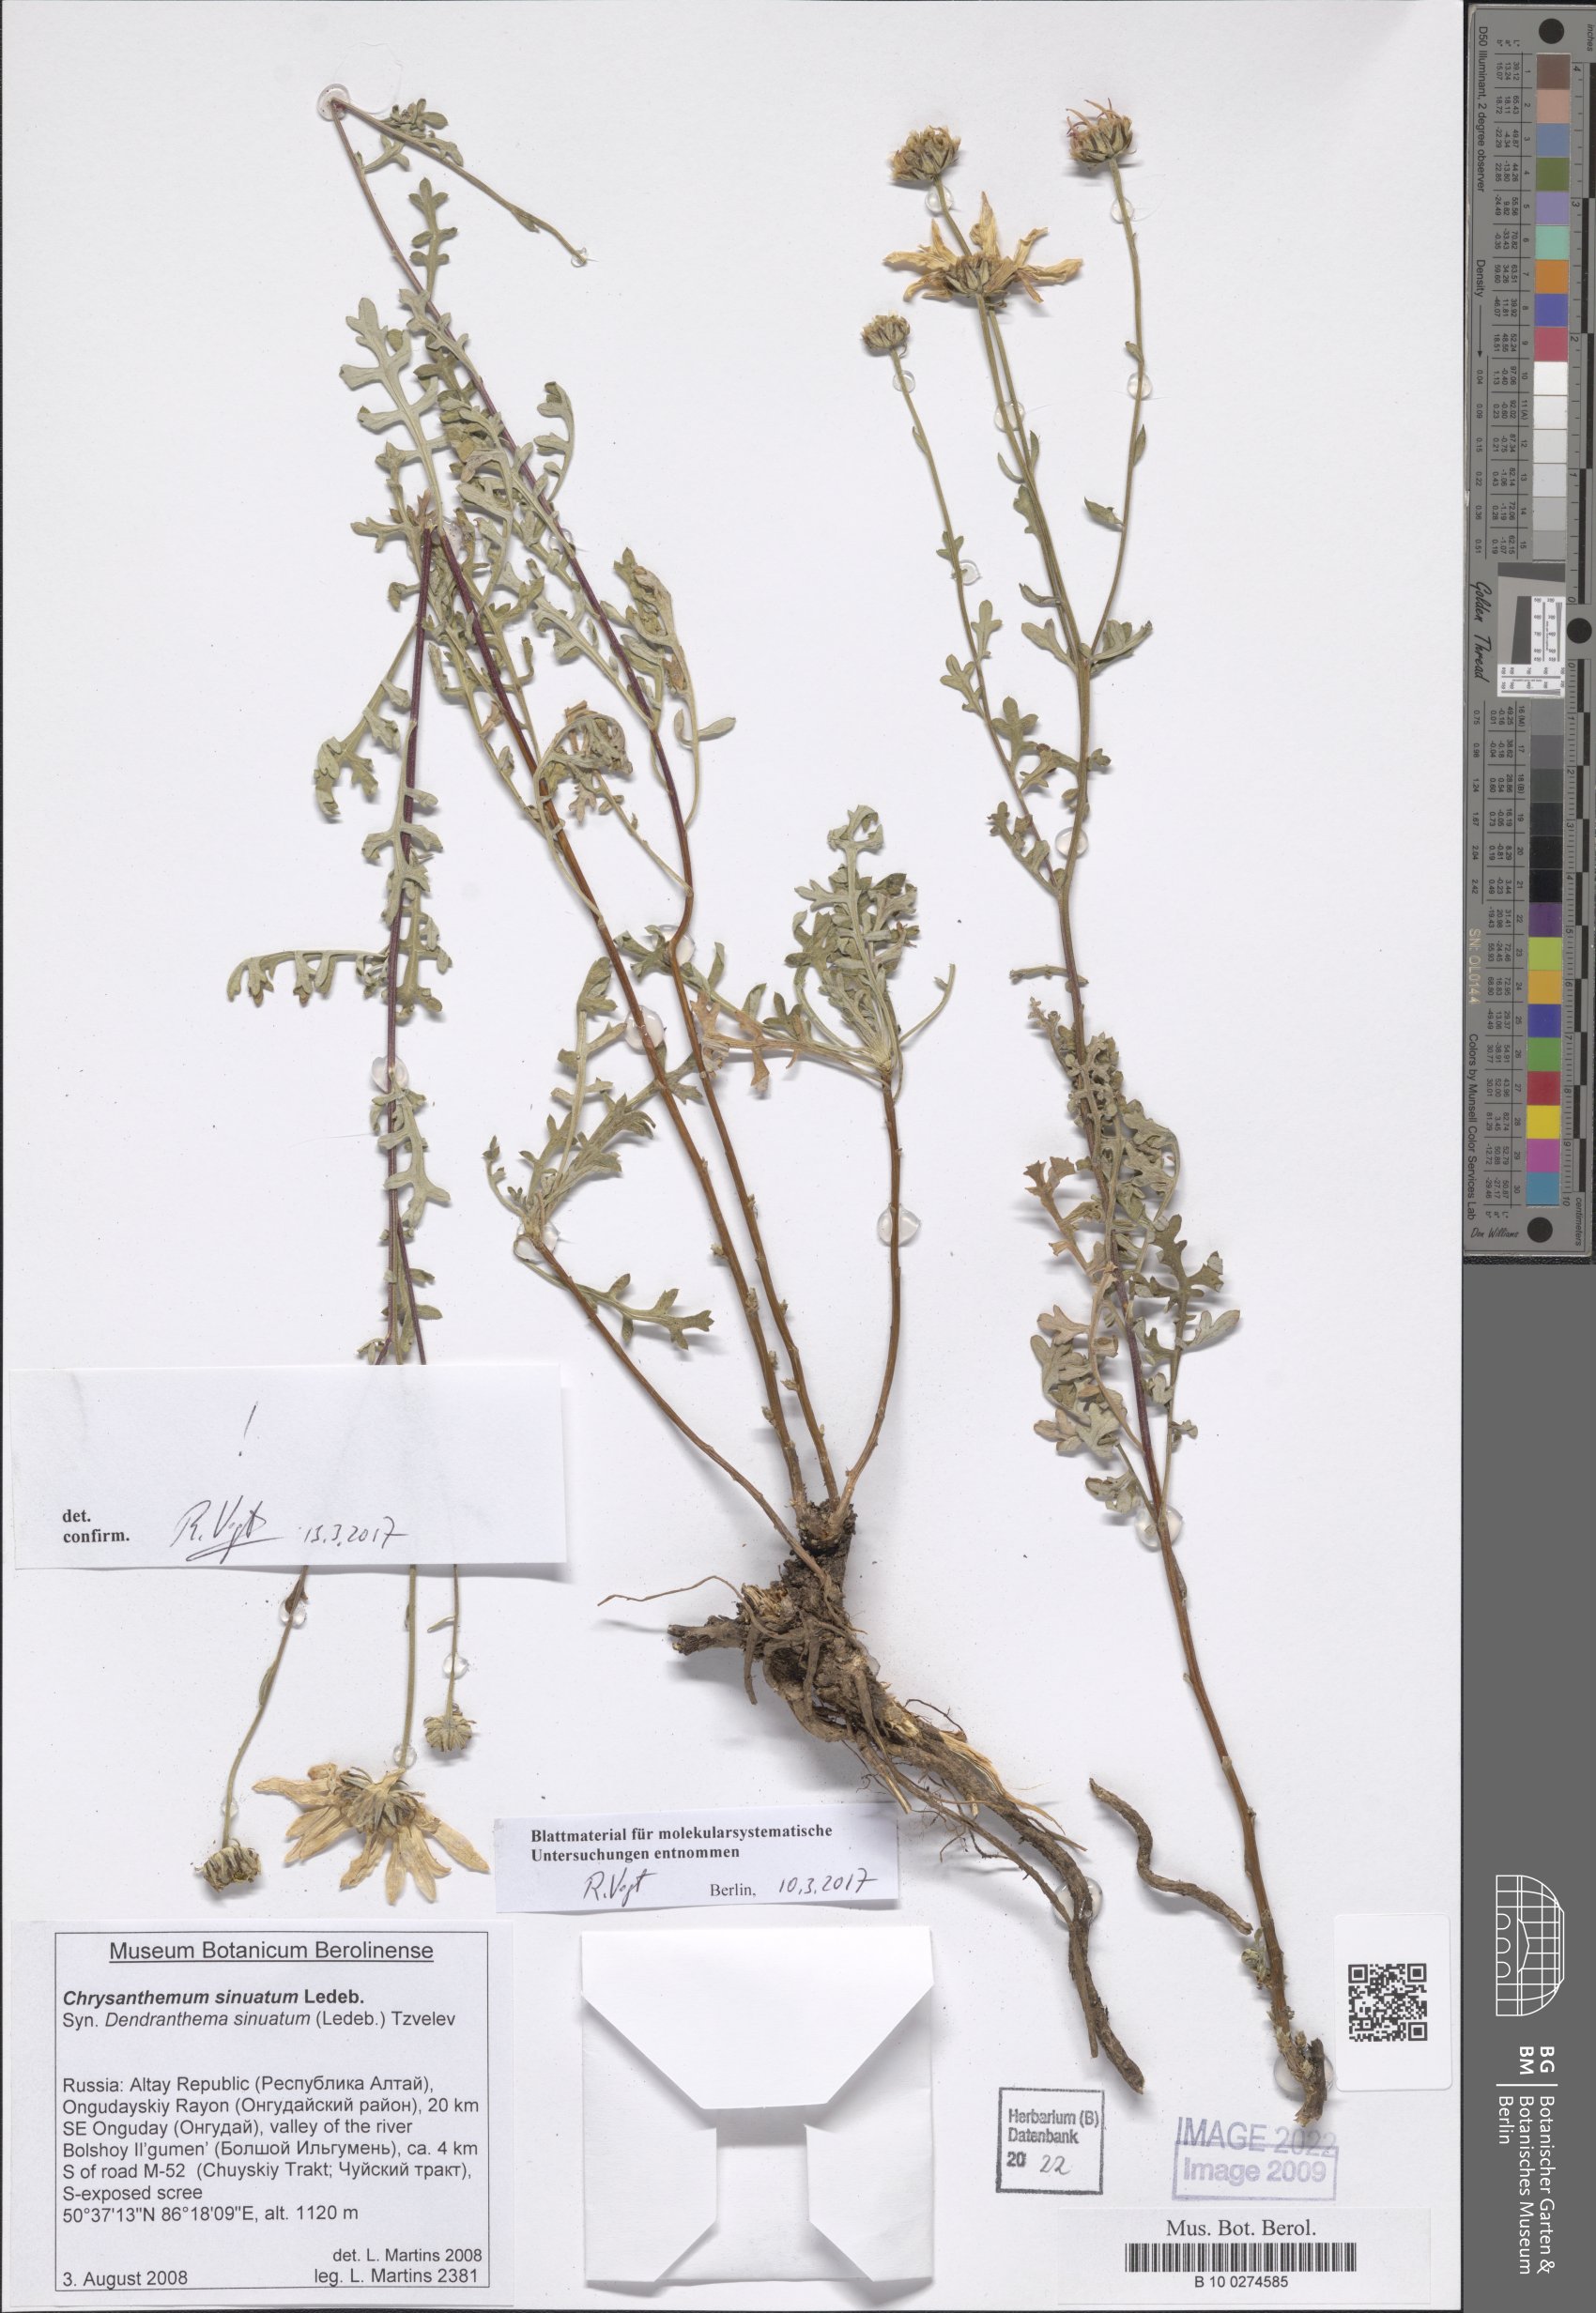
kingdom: Plantae
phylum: Tracheophyta
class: Magnoliopsida
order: Asterales
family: Asteraceae
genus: Chrysanthemum
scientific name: Chrysanthemum sinuatum
